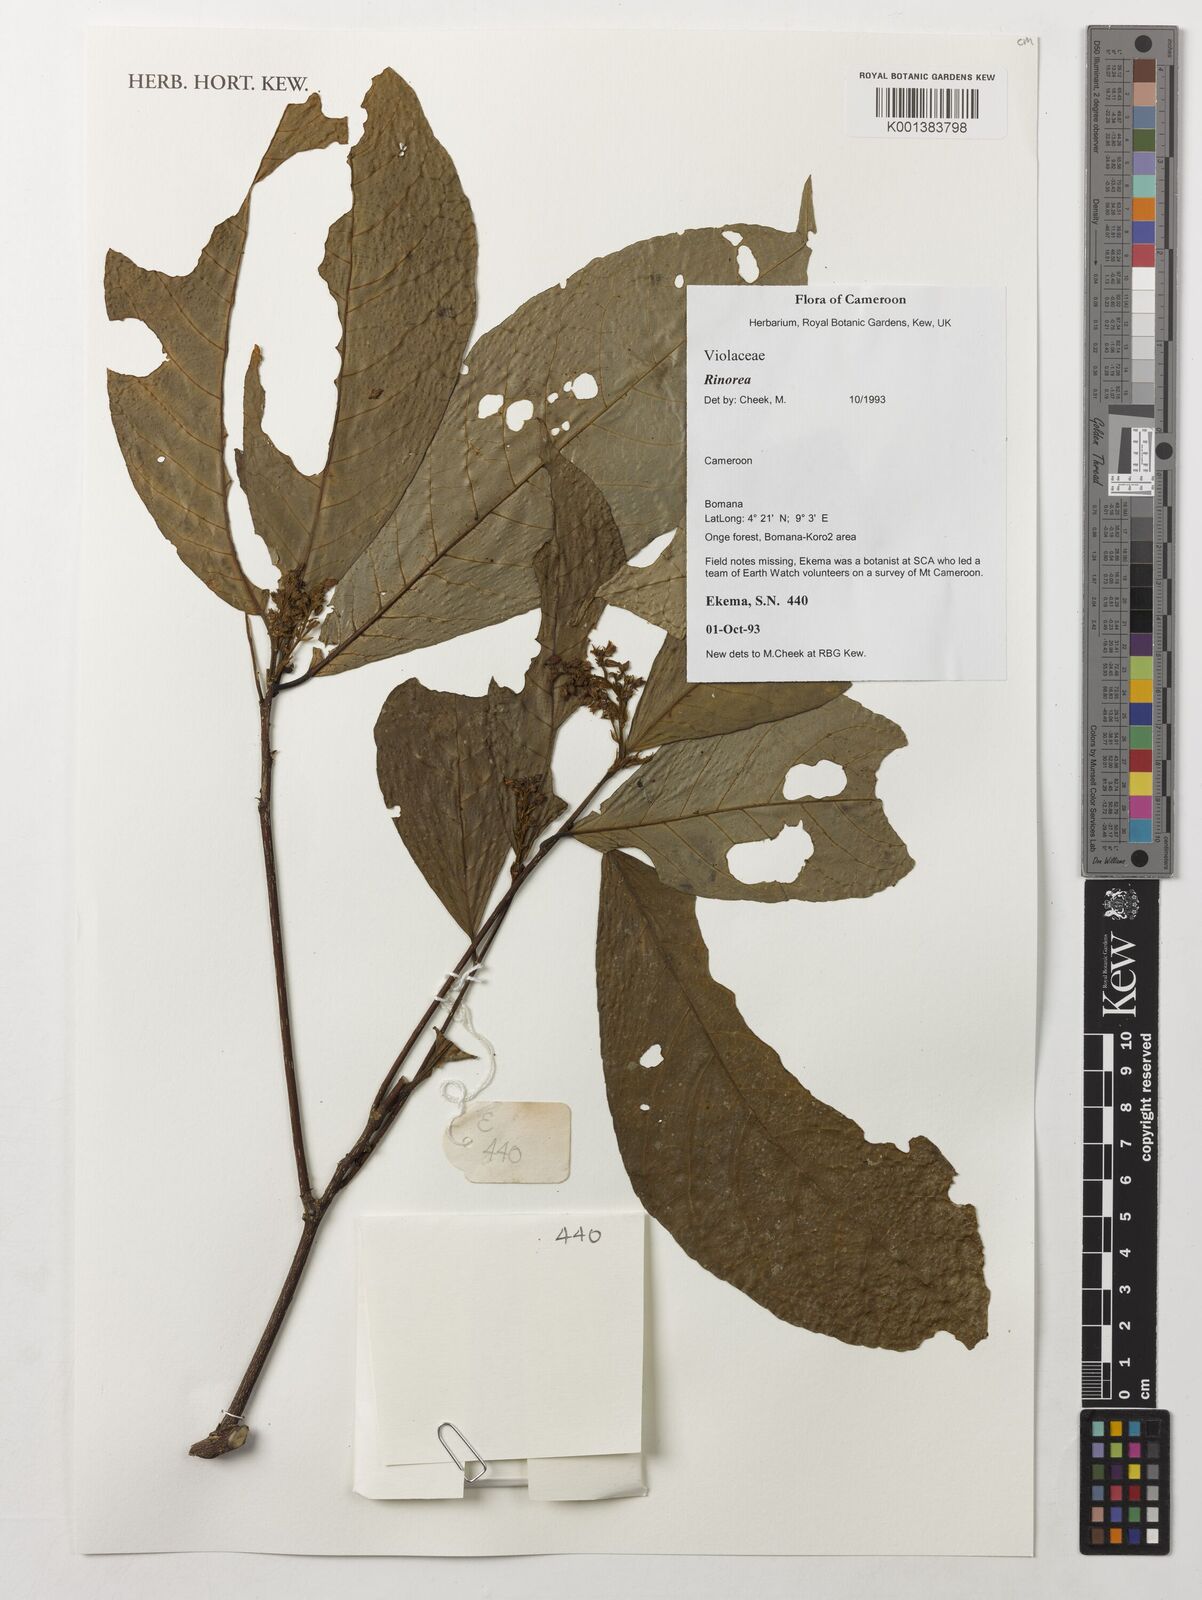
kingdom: Plantae
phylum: Tracheophyta
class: Magnoliopsida
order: Malpighiales
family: Violaceae
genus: Rinorea
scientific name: Rinorea
